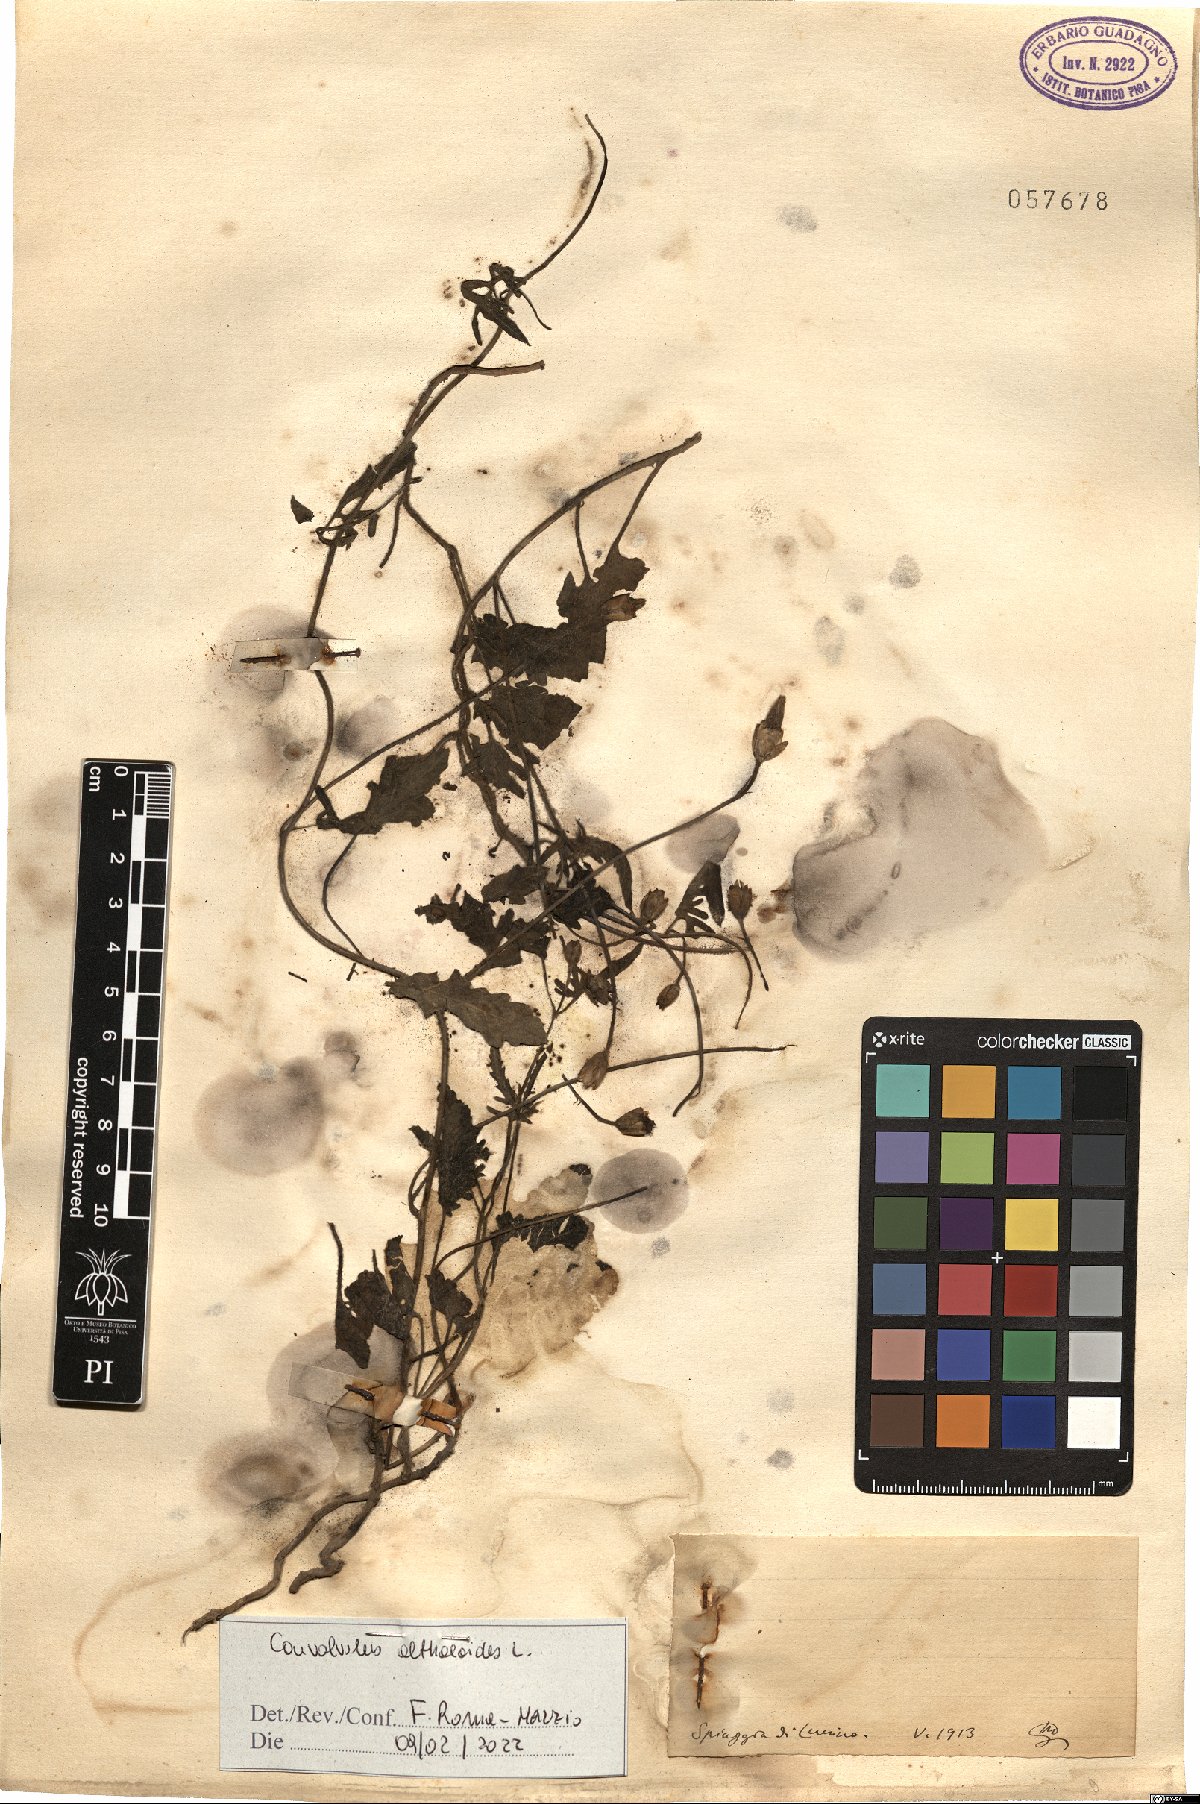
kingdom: Plantae
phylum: Tracheophyta
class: Magnoliopsida
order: Solanales
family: Convolvulaceae
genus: Convolvulus
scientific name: Convolvulus althaeoides
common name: Mallow bindweed
